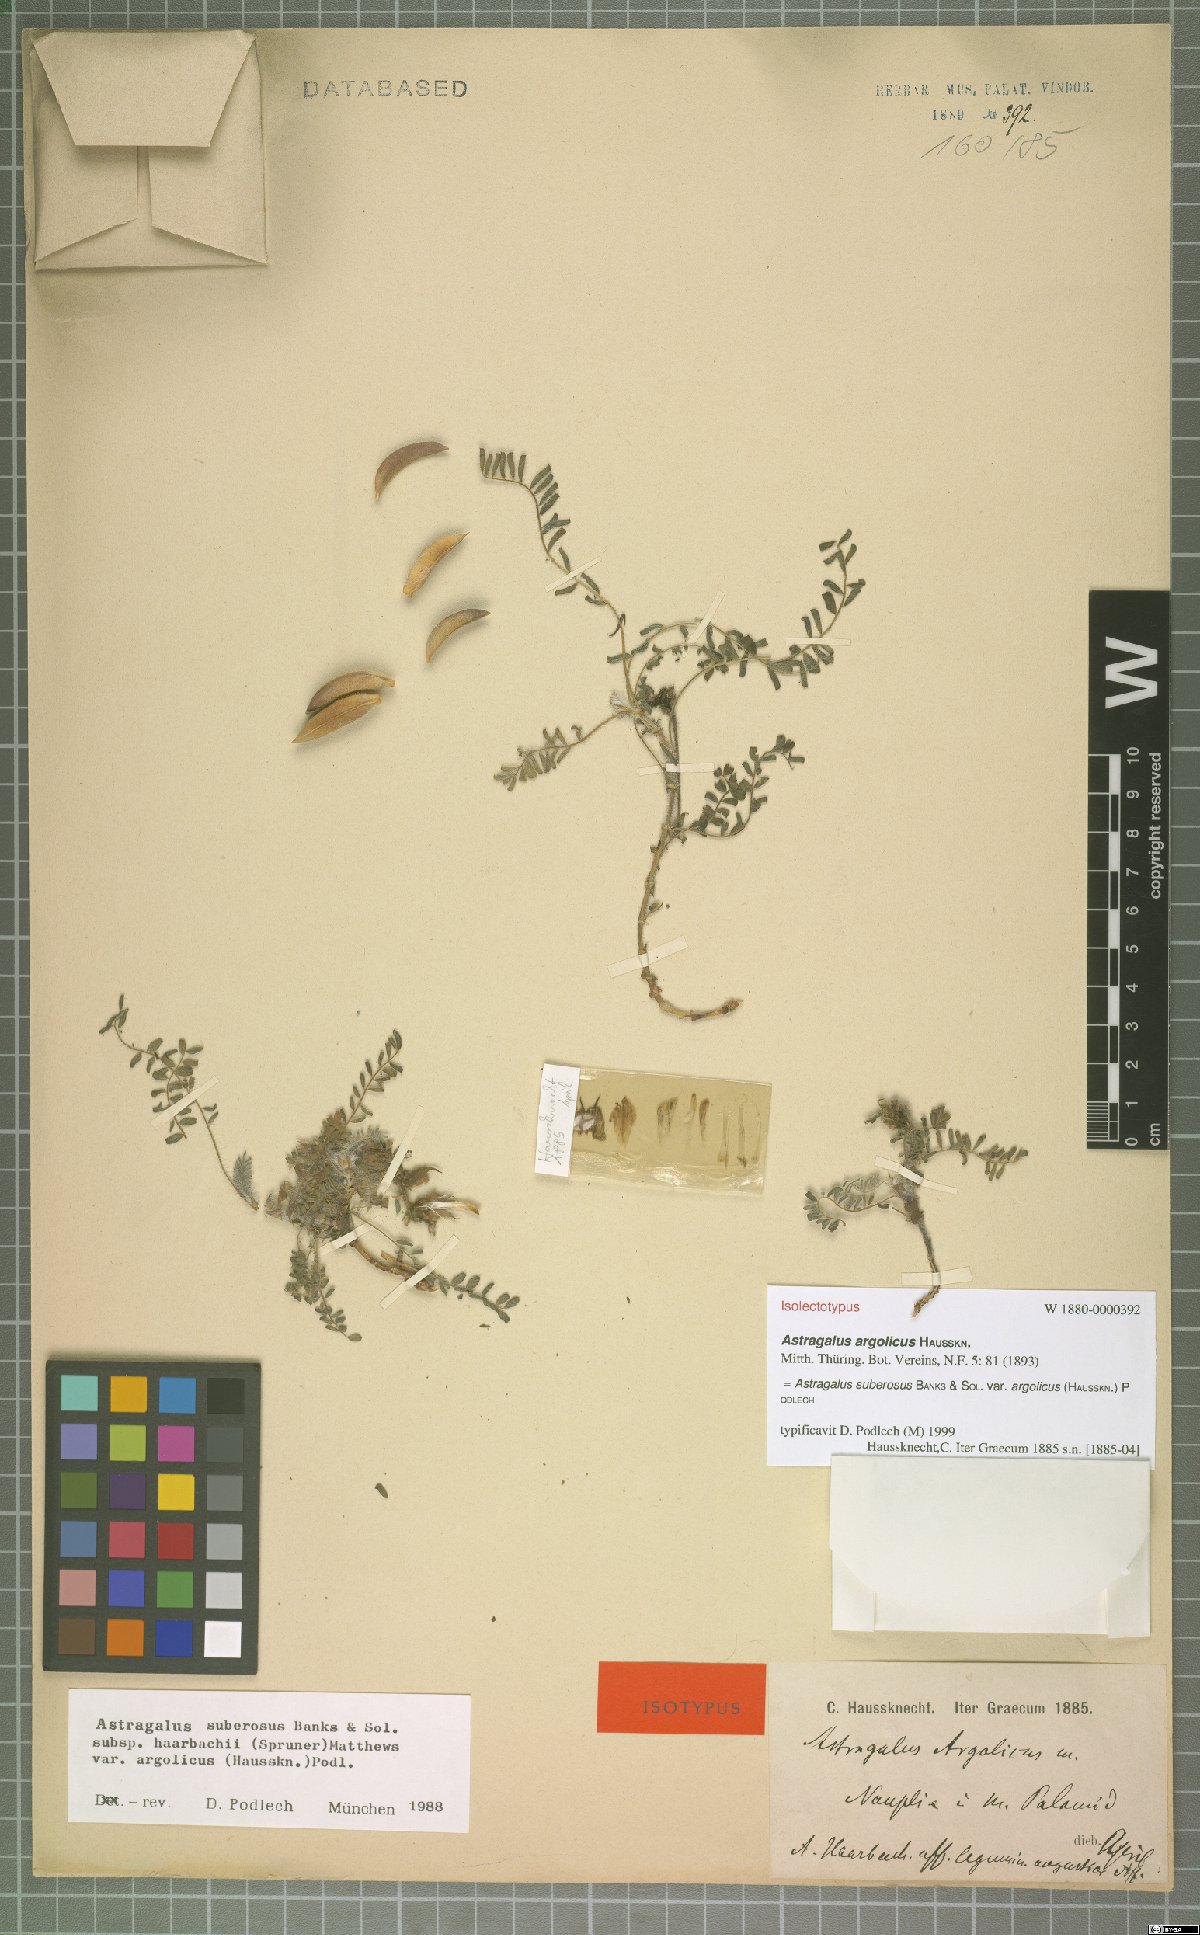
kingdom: Plantae
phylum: Tracheophyta
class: Magnoliopsida
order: Fabales
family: Fabaceae
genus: Astragalus
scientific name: Astragalus suberosus
